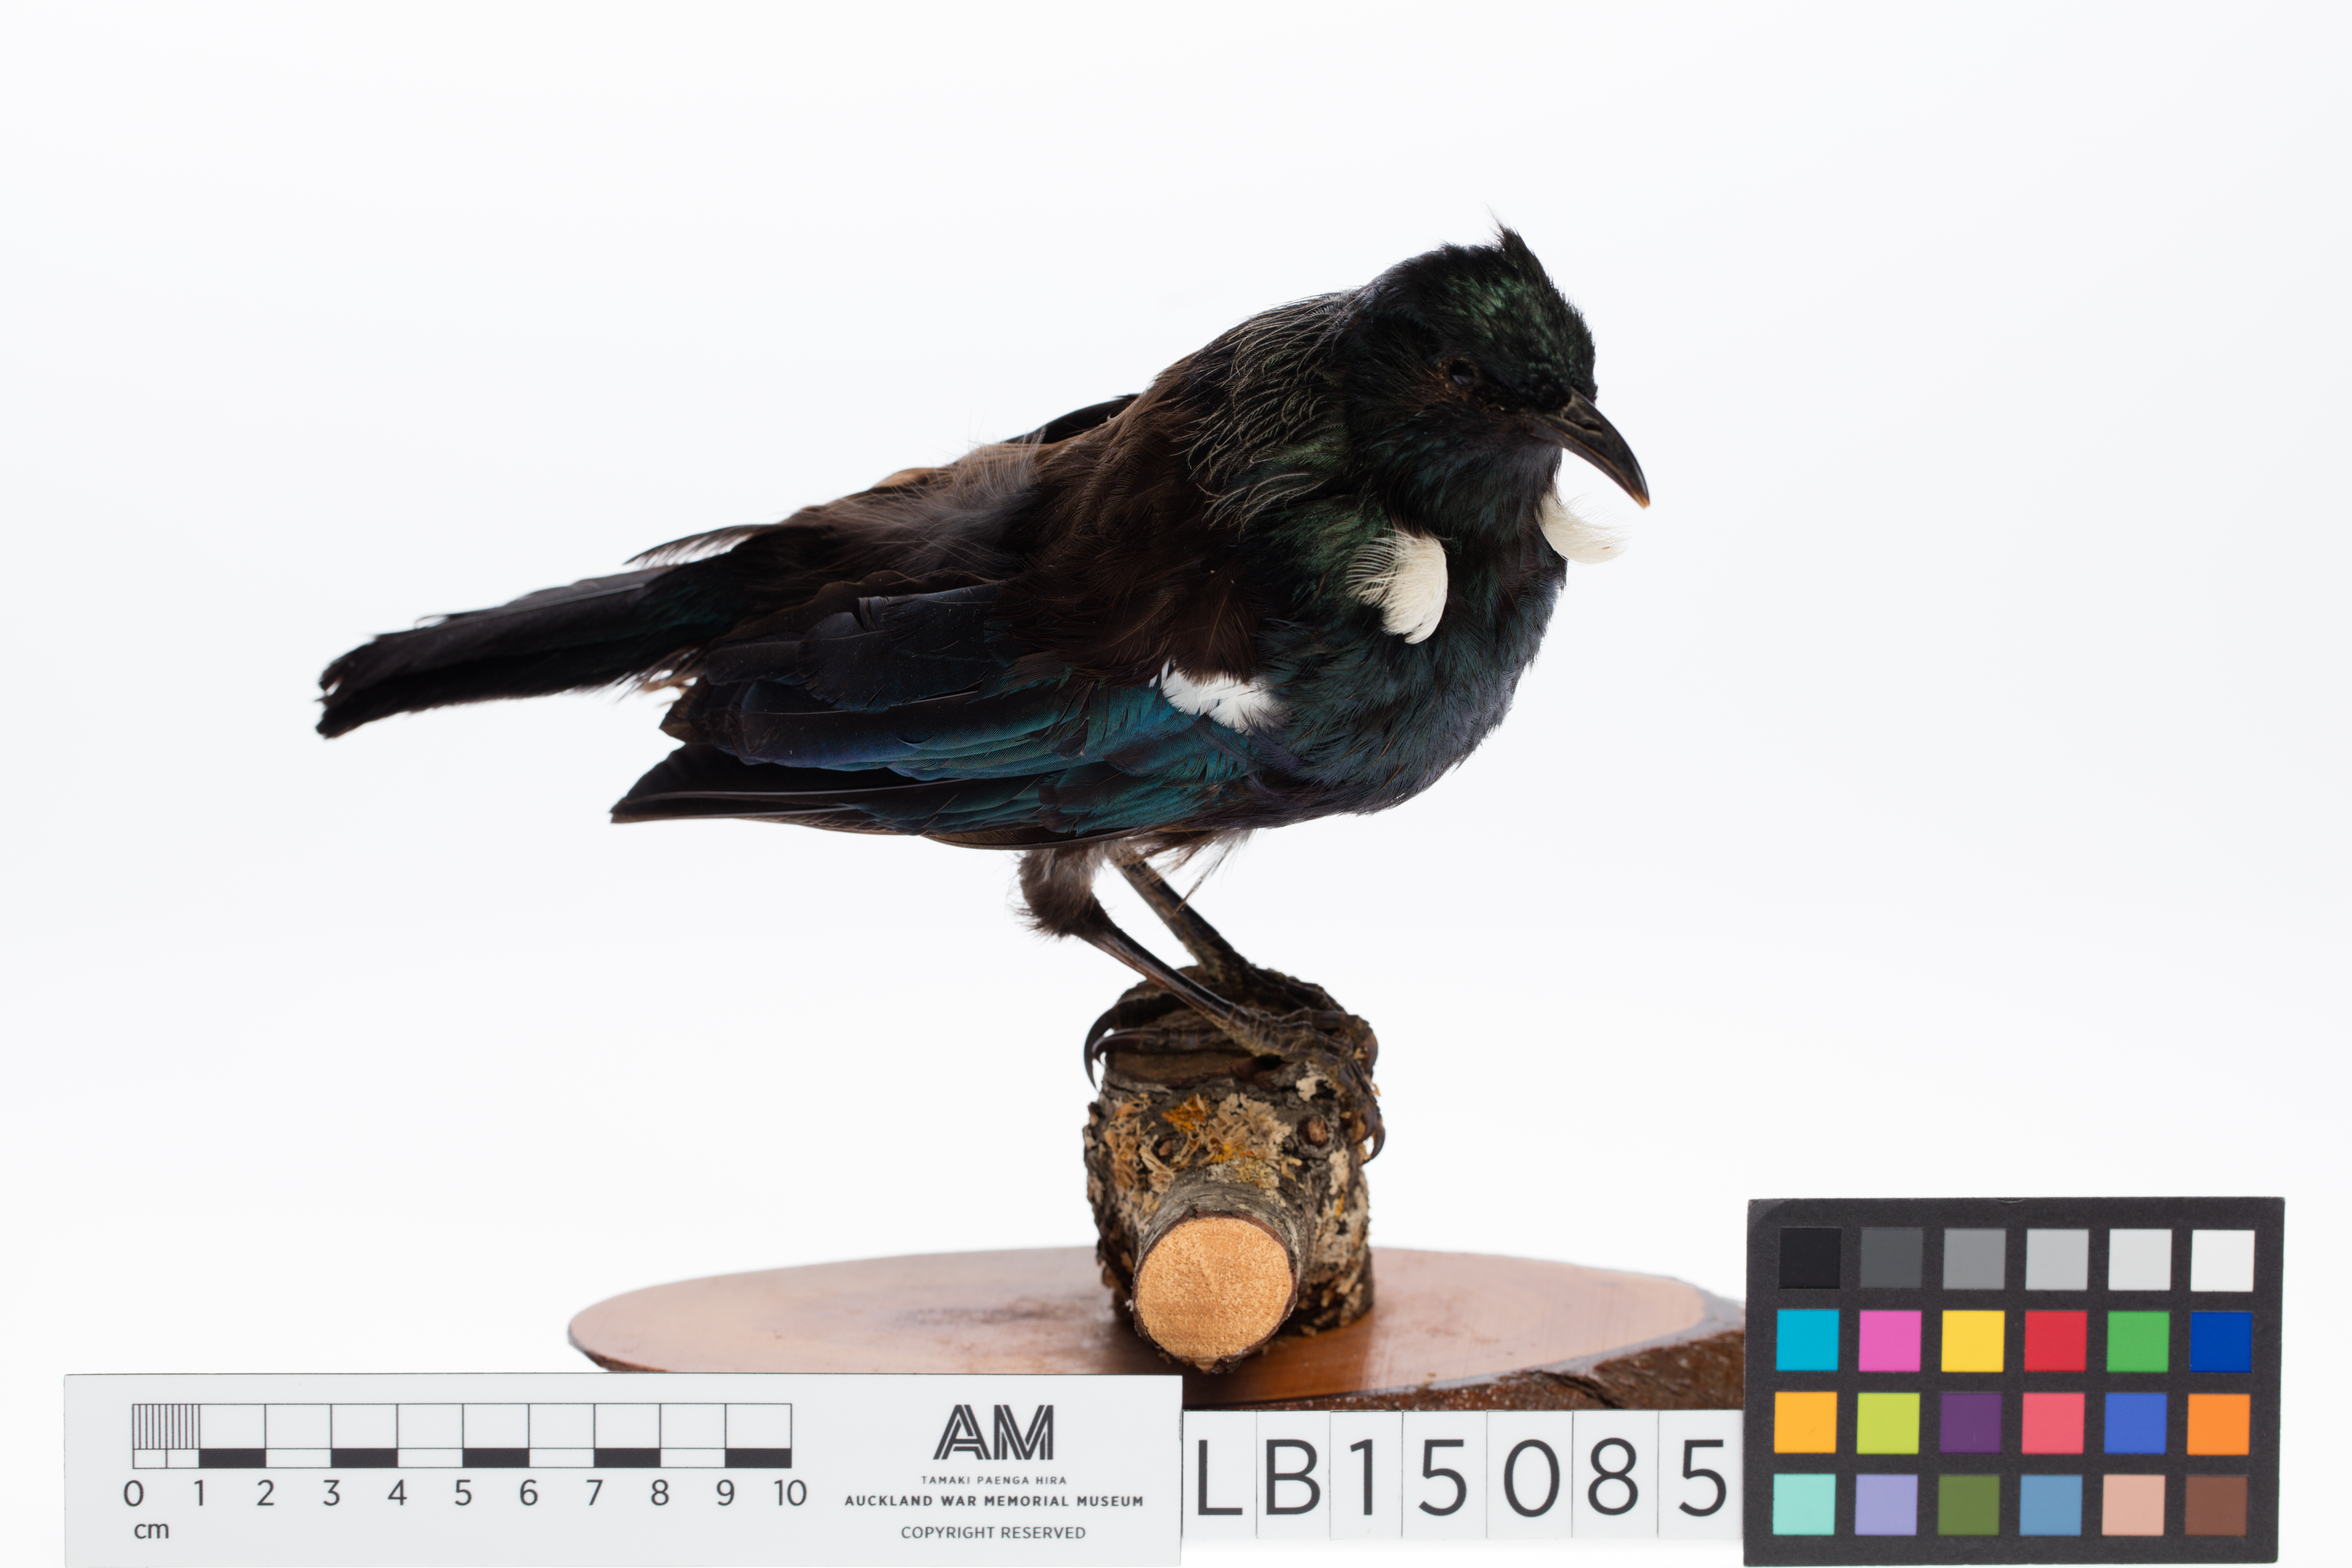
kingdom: Animalia
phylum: Chordata
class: Aves
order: Passeriformes
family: Meliphagidae
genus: Prosthemadera
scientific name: Prosthemadera novaeseelandiae
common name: Tui
